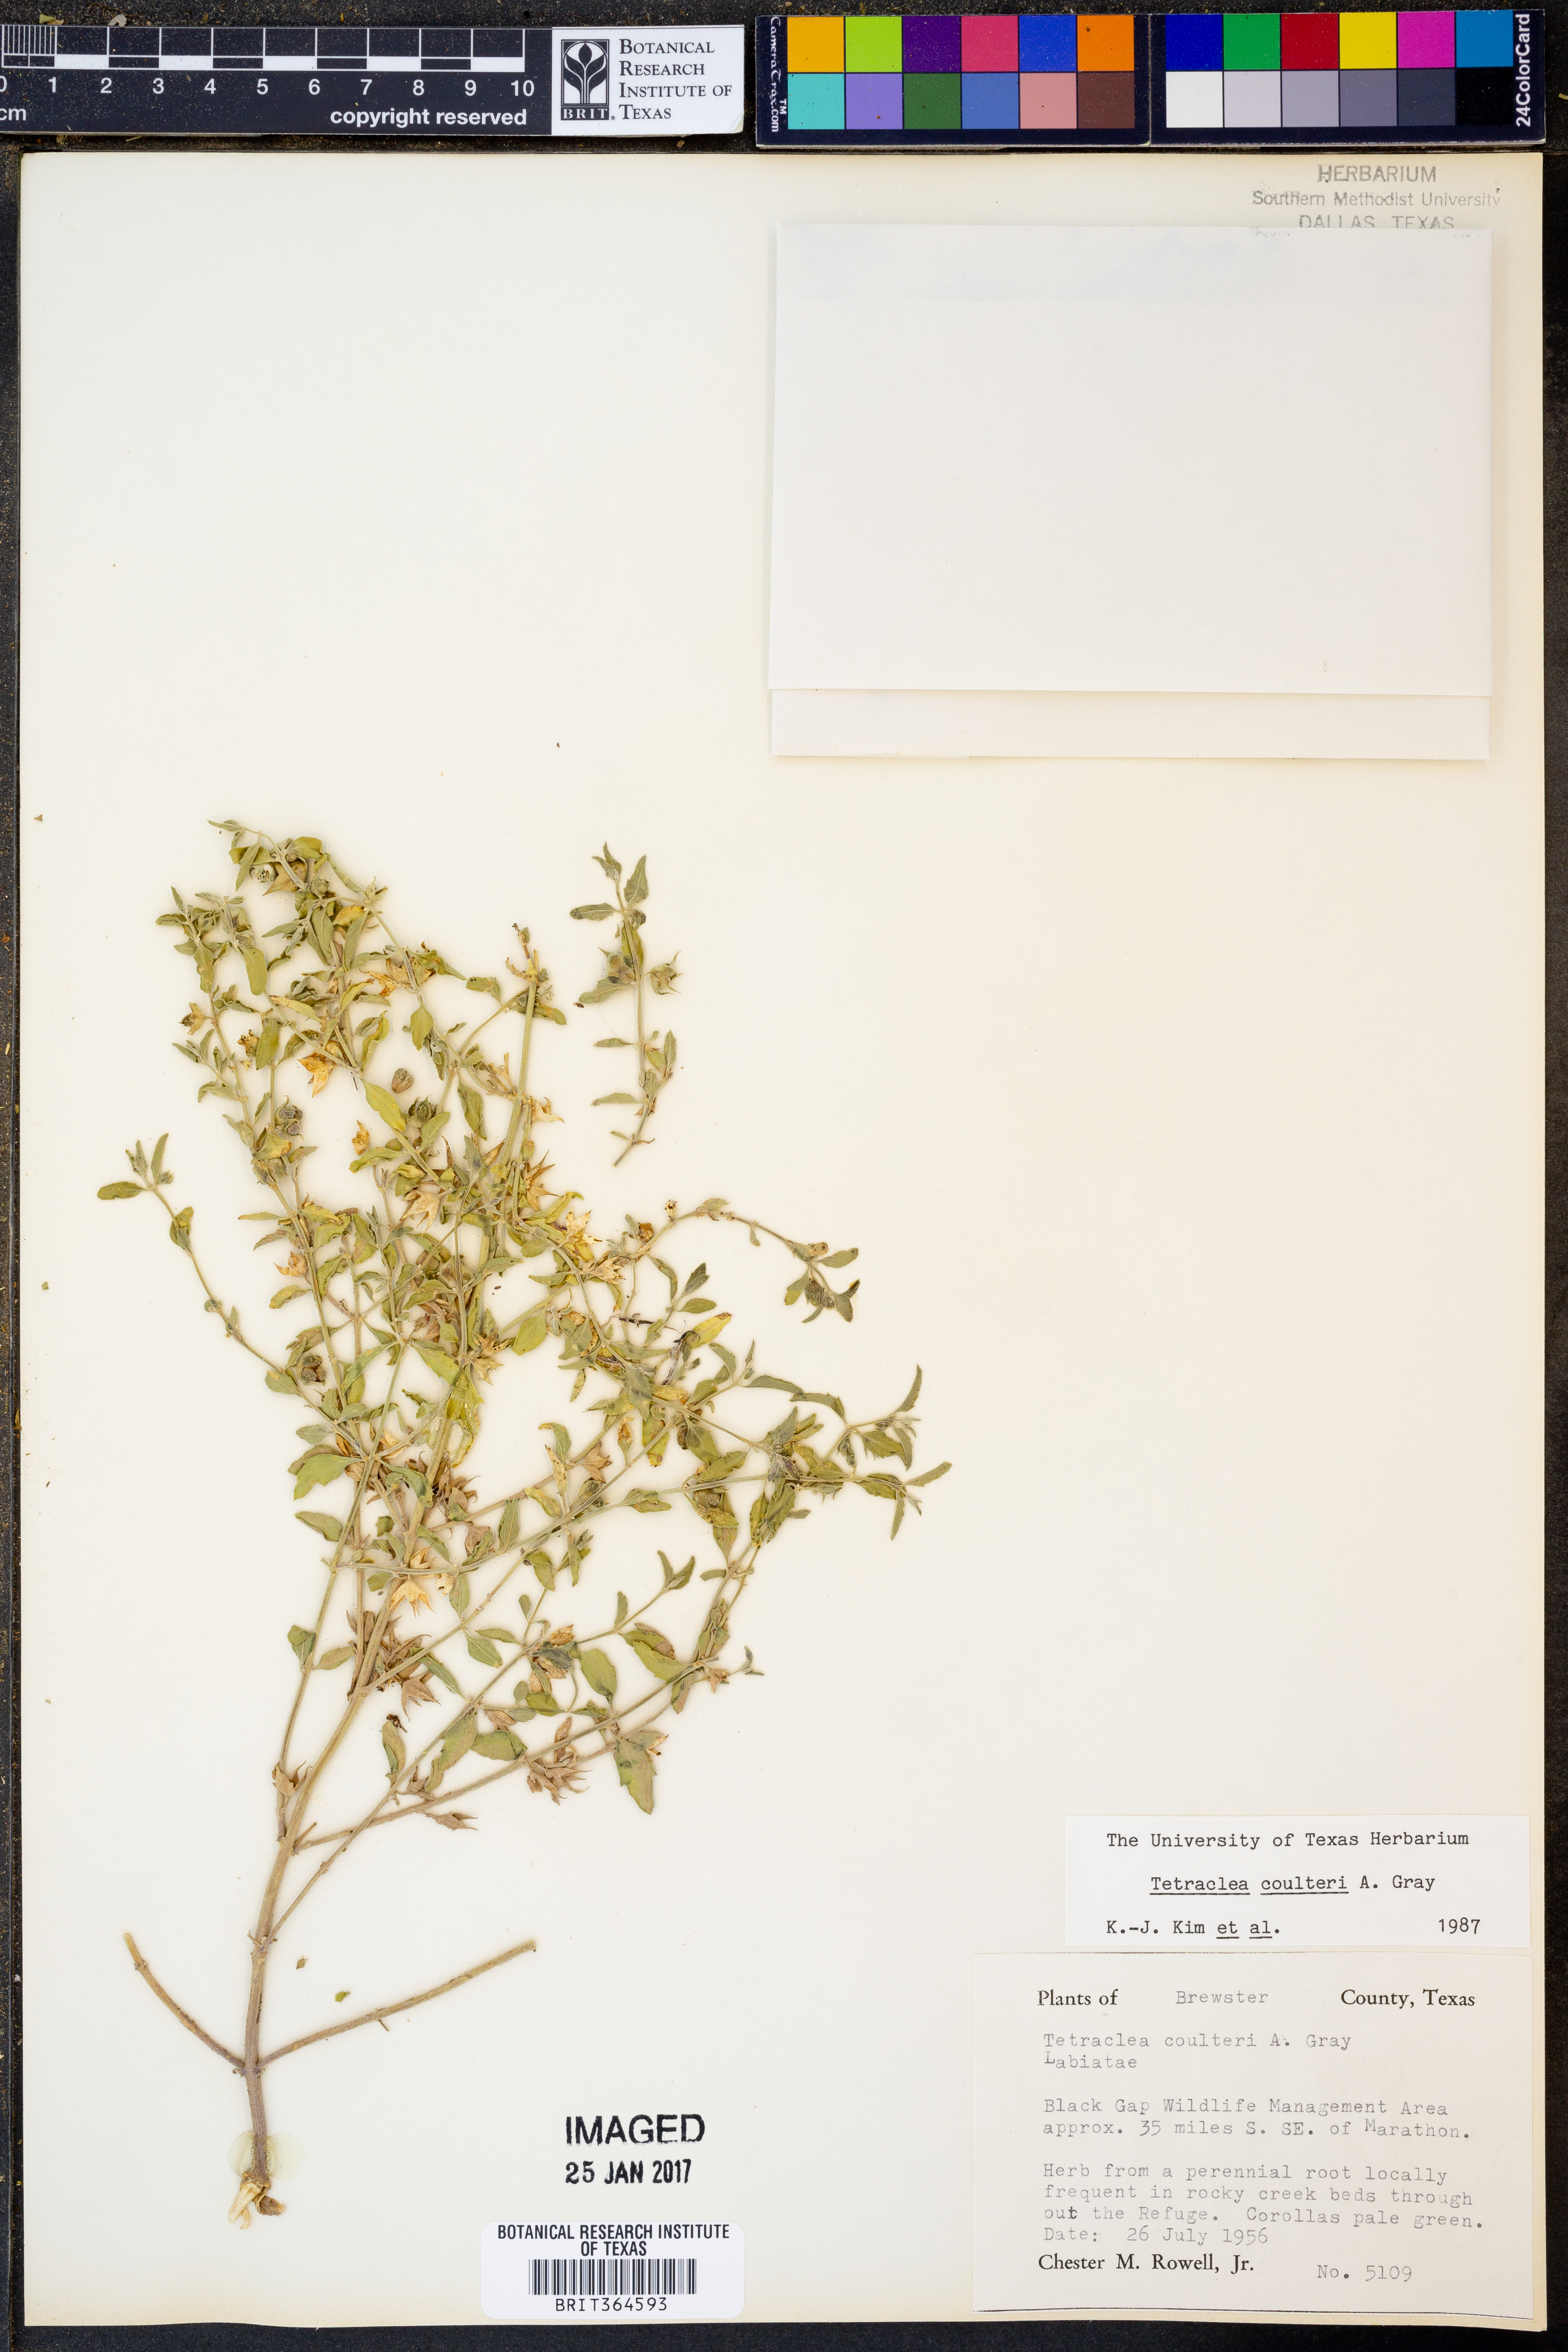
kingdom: Plantae
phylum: Tracheophyta
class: Magnoliopsida
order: Lamiales
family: Lamiaceae
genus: Tetraclea
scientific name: Tetraclea coulteri
